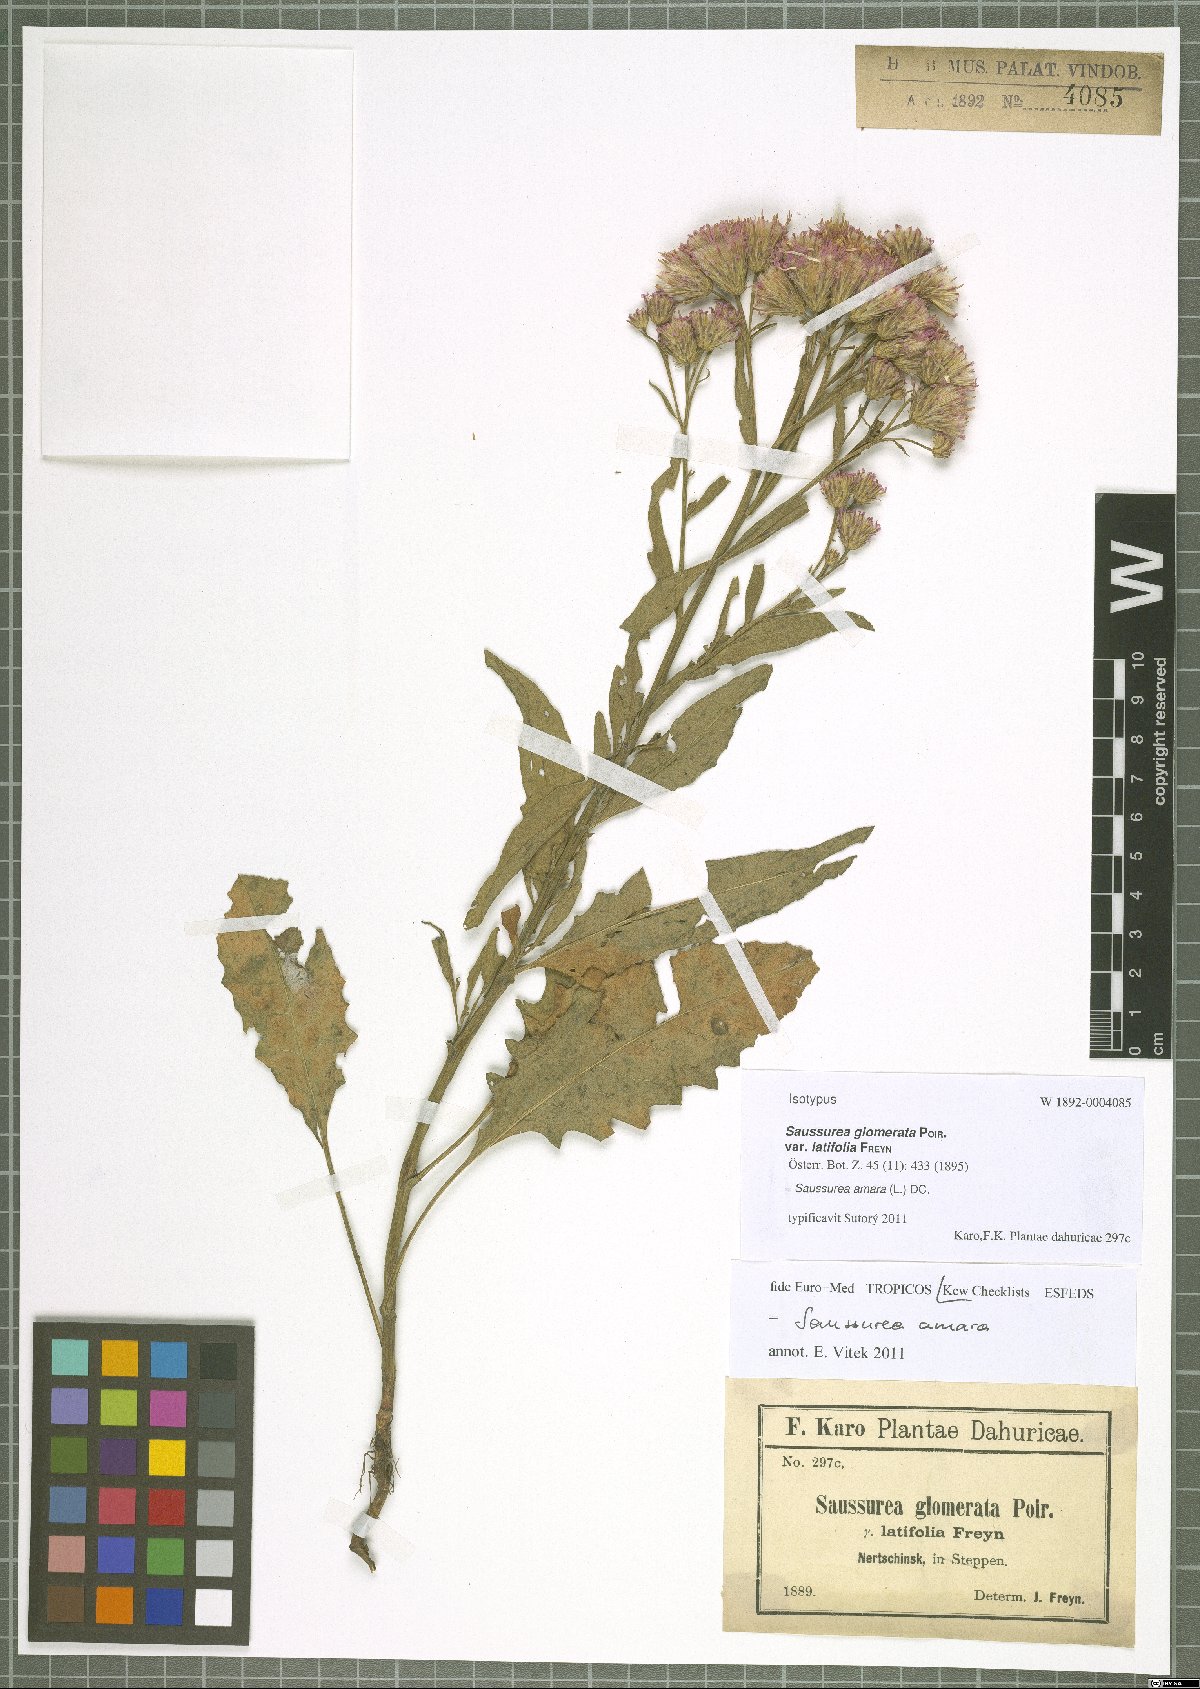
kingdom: Plantae
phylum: Tracheophyta
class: Magnoliopsida
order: Asterales
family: Asteraceae
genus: Saussurea
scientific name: Saussurea amara
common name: Alberta sawwort
